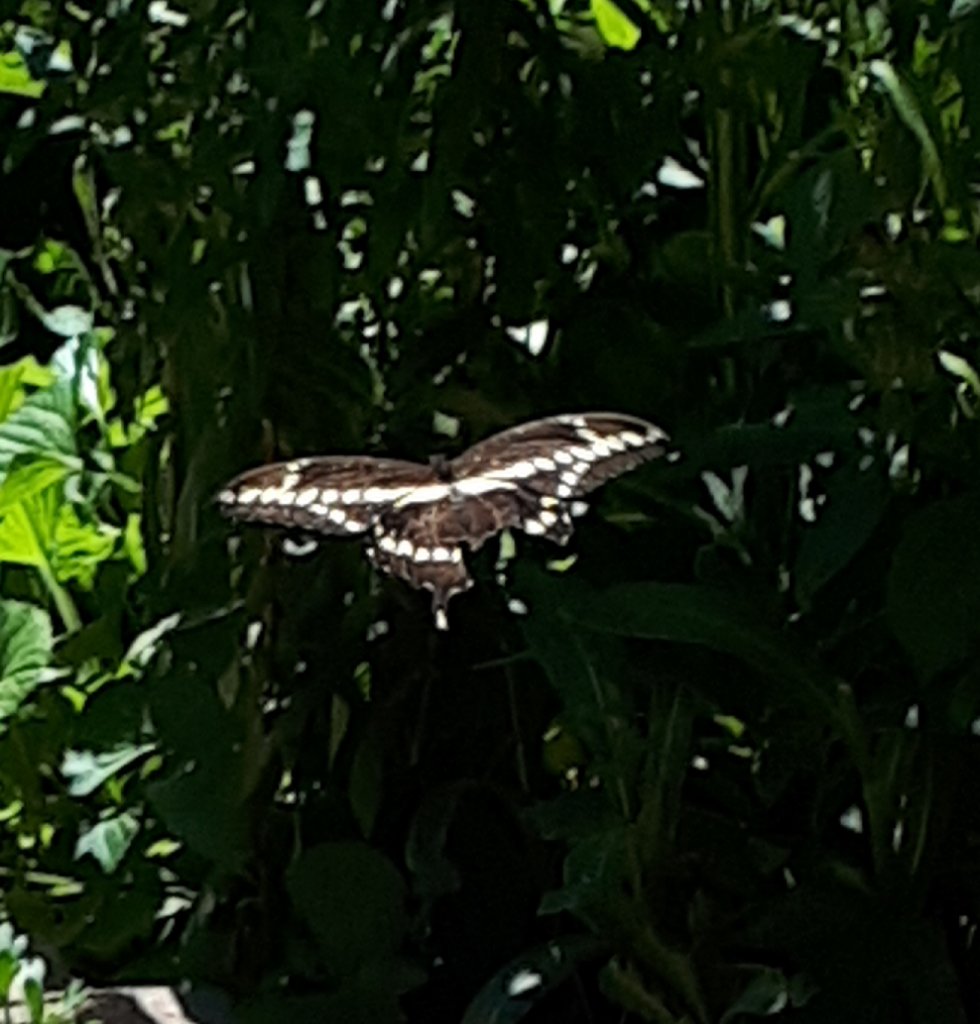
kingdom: Animalia
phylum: Arthropoda
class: Insecta
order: Lepidoptera
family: Papilionidae
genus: Papilio
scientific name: Papilio cresphontes
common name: Eastern Giant Swallowtail
